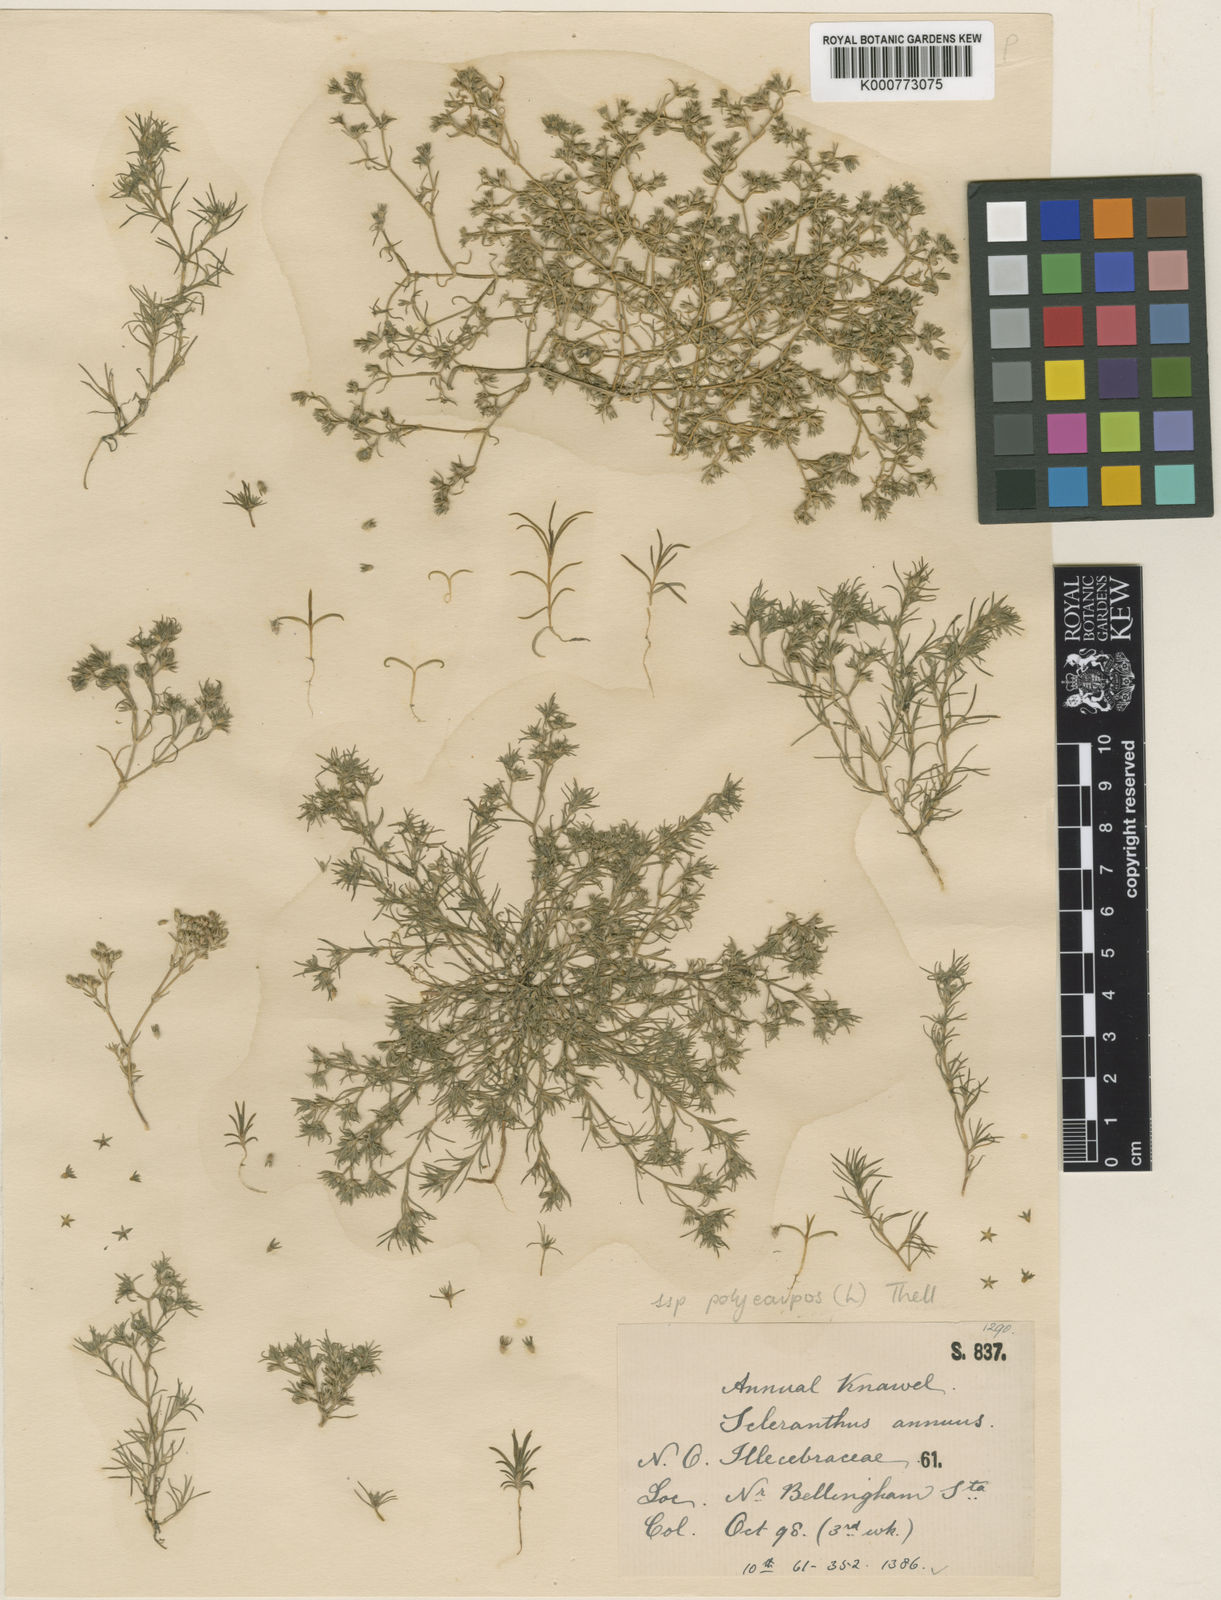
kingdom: Plantae
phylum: Tracheophyta
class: Magnoliopsida
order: Caryophyllales
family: Caryophyllaceae
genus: Scleranthus
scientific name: Scleranthus annuus
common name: Annual knawel
